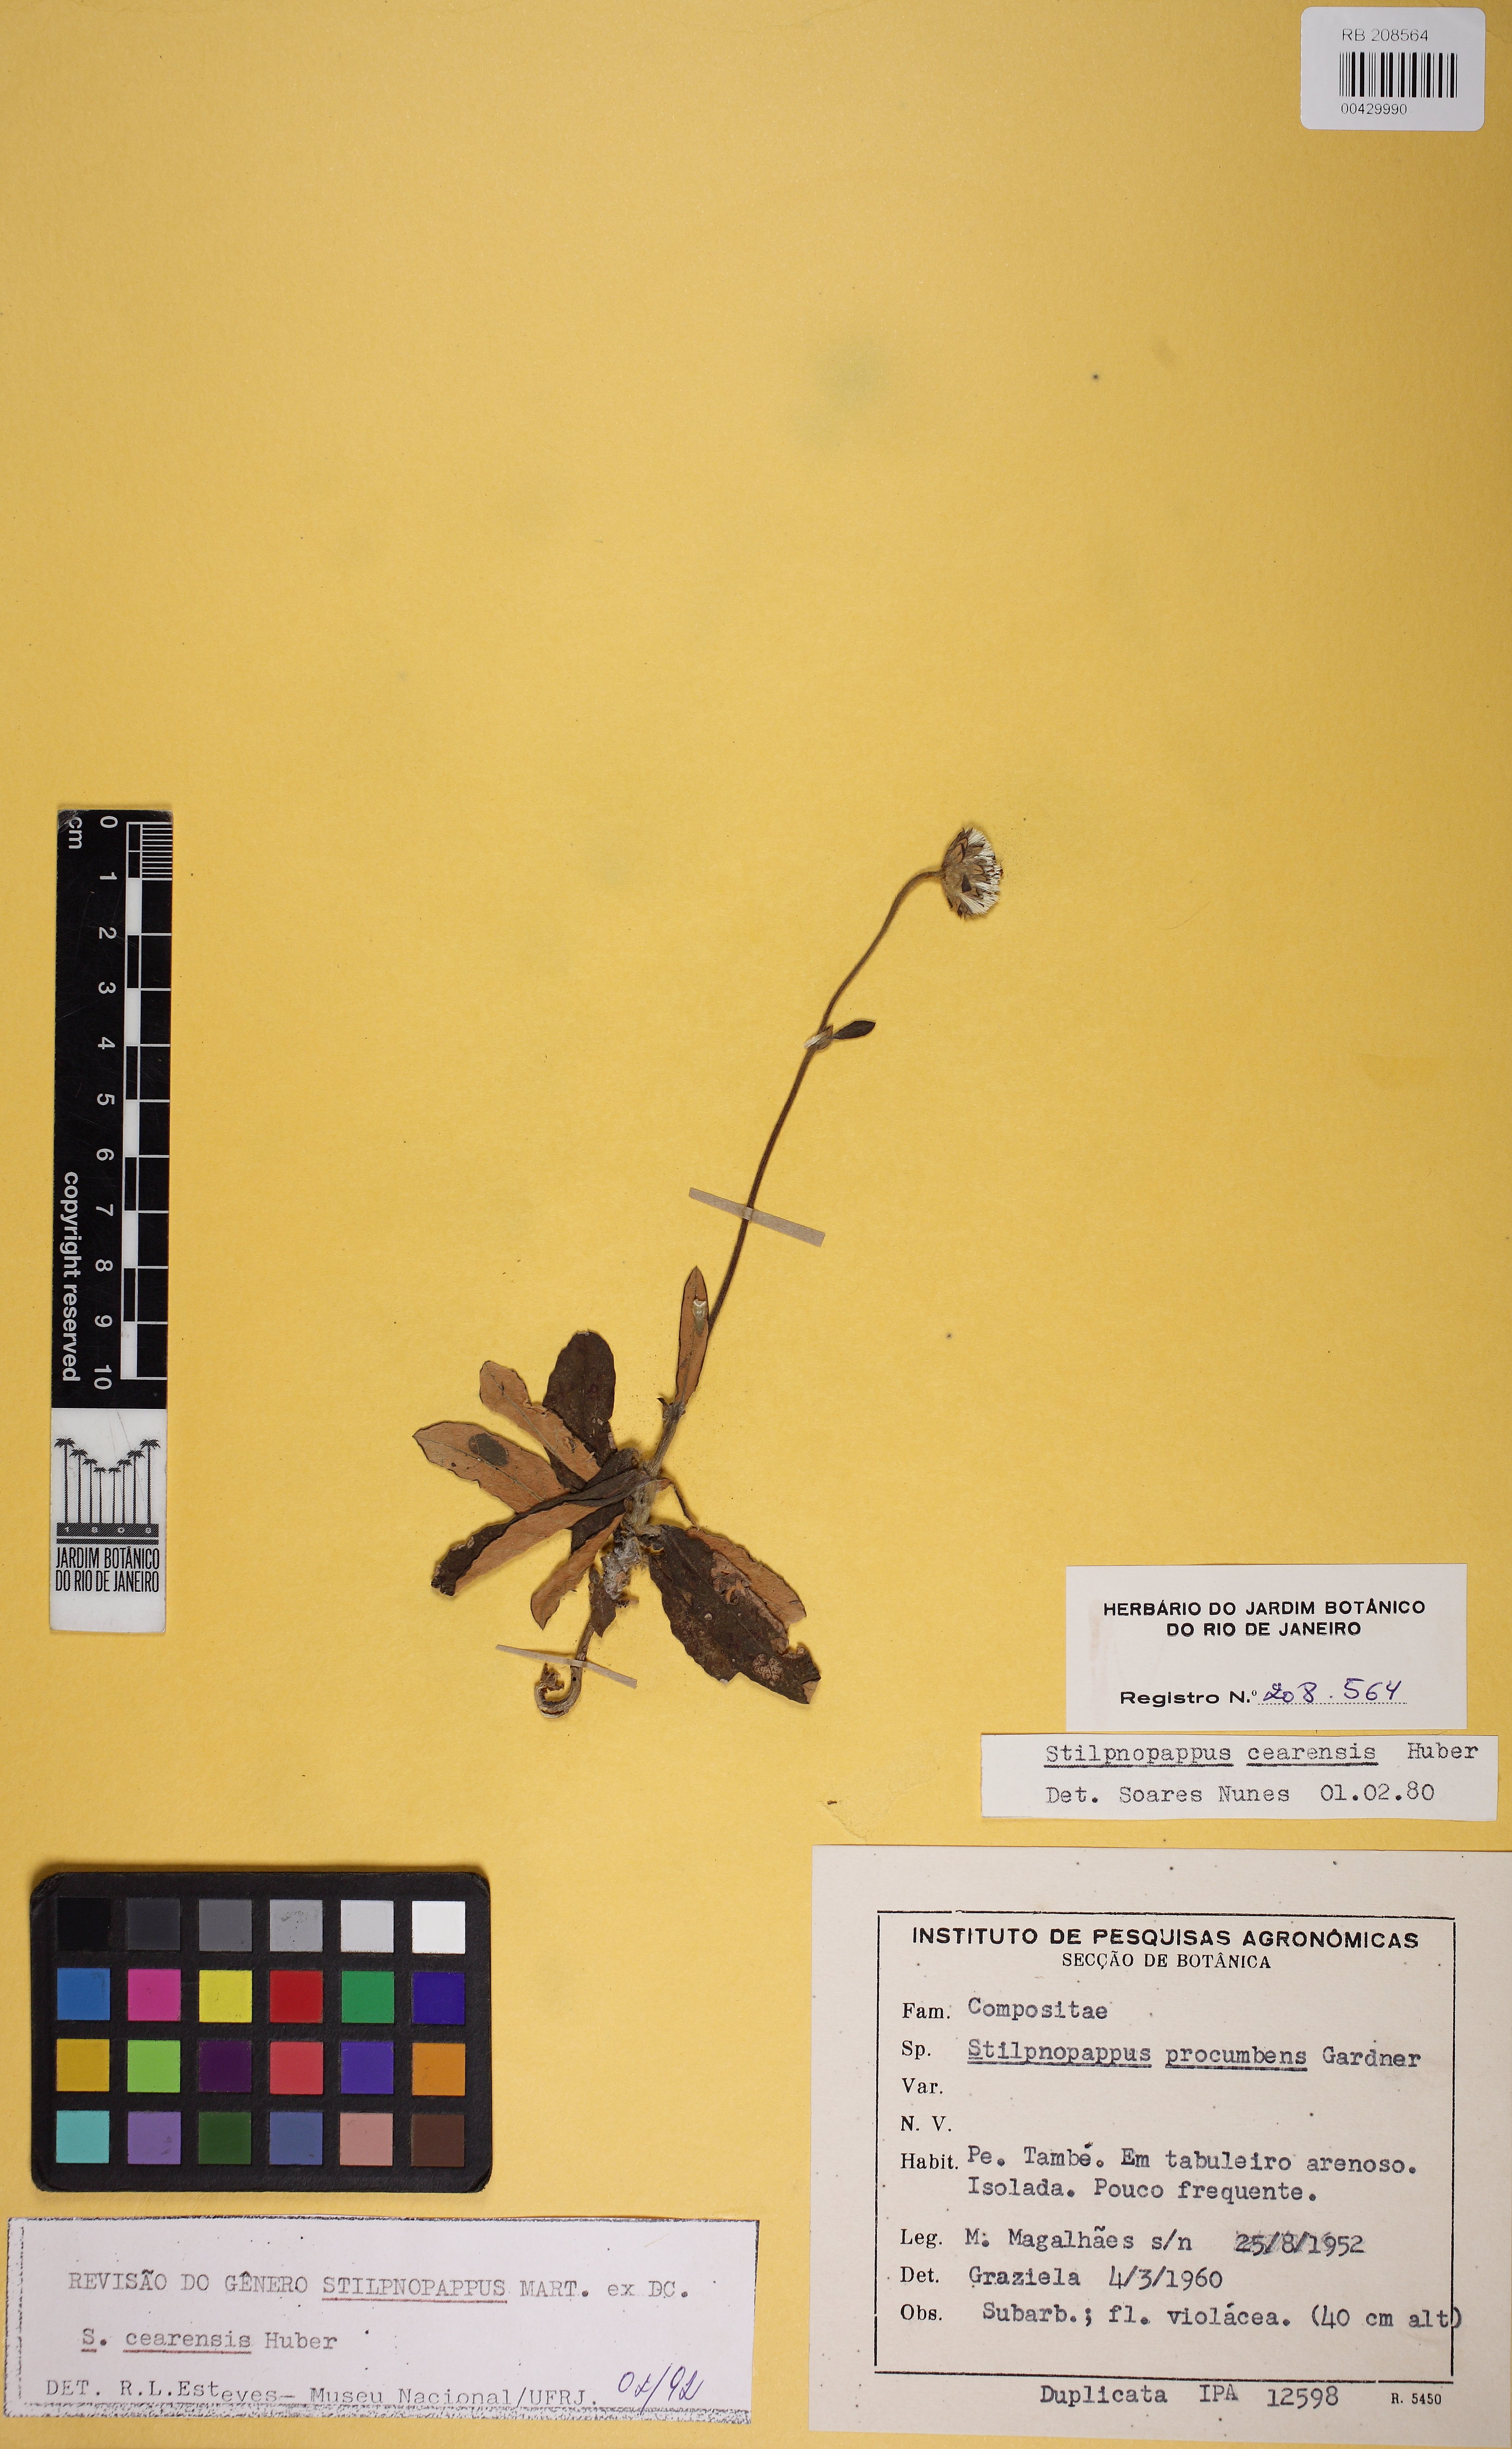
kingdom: Plantae
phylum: Tracheophyta
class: Magnoliopsida
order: Asterales
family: Asteraceae
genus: Stilpnopappus
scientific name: Stilpnopappus cearensis
